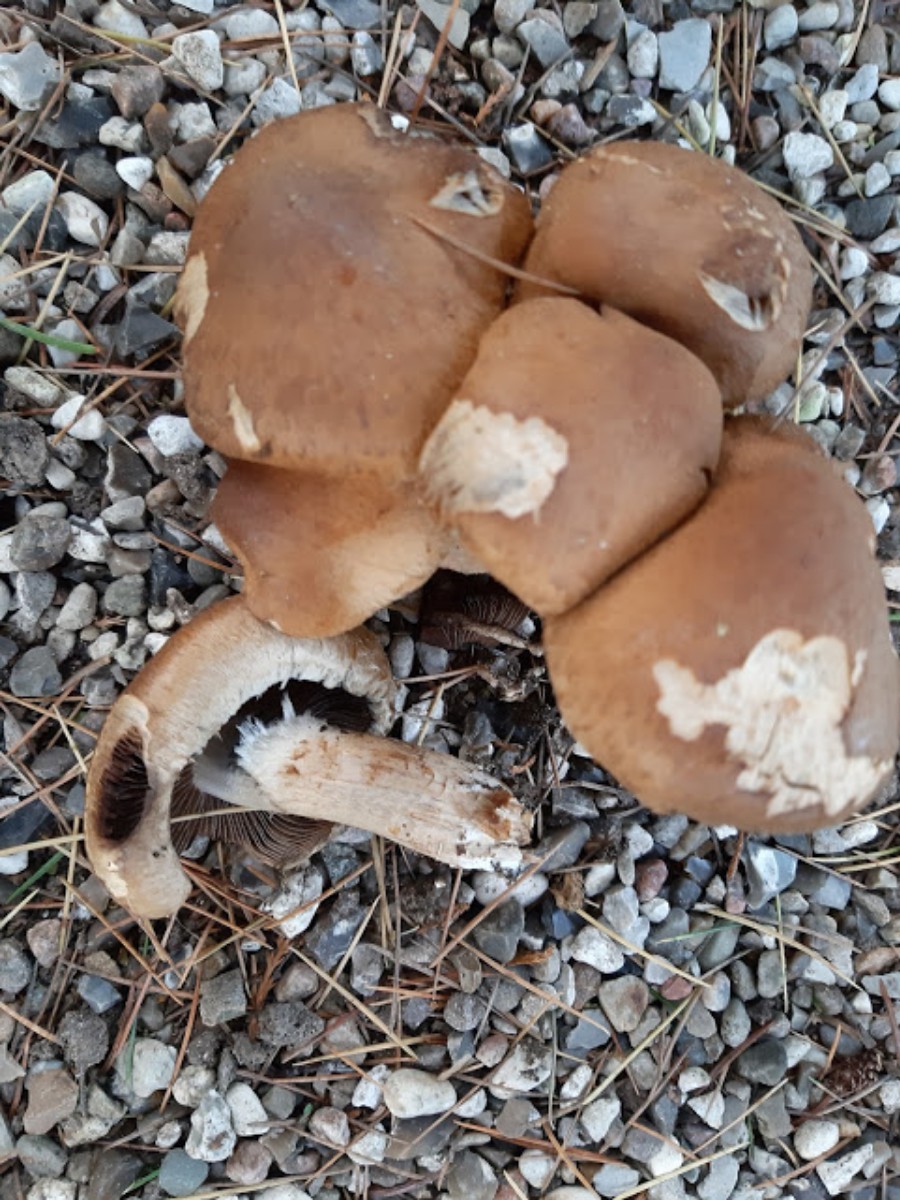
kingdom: Fungi
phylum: Basidiomycota
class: Agaricomycetes
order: Agaricales
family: Psathyrellaceae
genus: Lacrymaria
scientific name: Lacrymaria lacrymabunda
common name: grædende mørkhat
